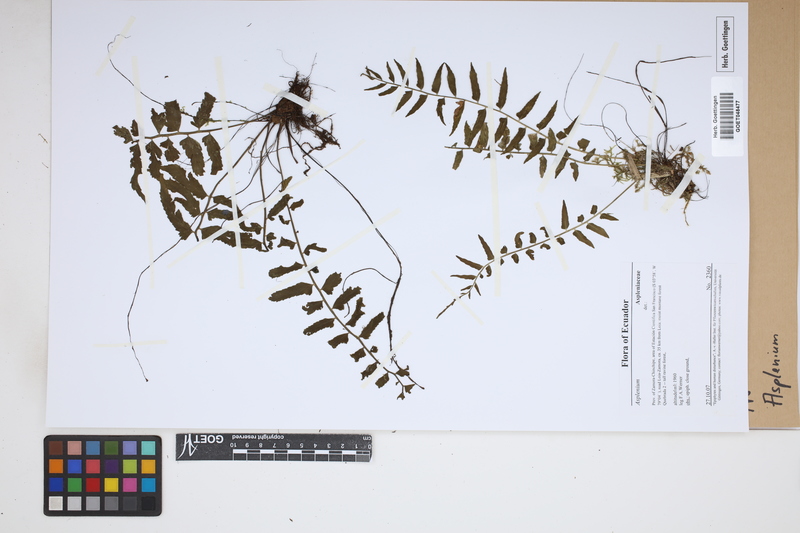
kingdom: Plantae
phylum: Tracheophyta
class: Polypodiopsida
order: Polypodiales
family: Aspleniaceae
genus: Asplenium
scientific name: Asplenium
